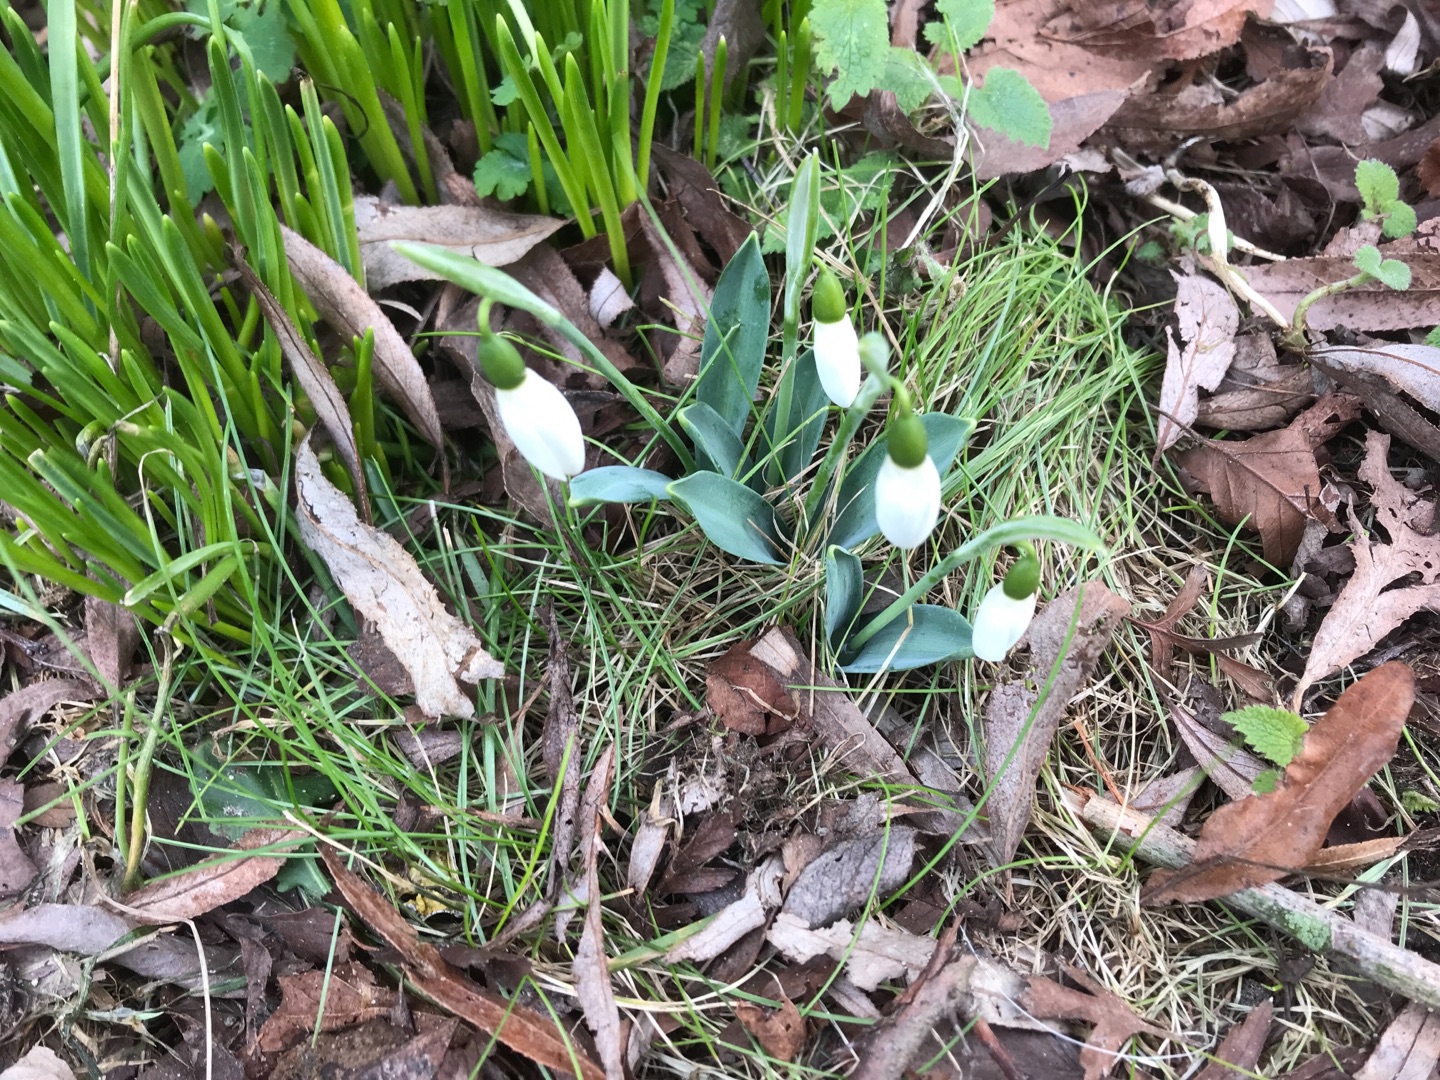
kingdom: Plantae
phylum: Tracheophyta
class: Liliopsida
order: Asparagales
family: Amaryllidaceae
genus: Galanthus
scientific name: Galanthus nivalis
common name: Vintergæk
